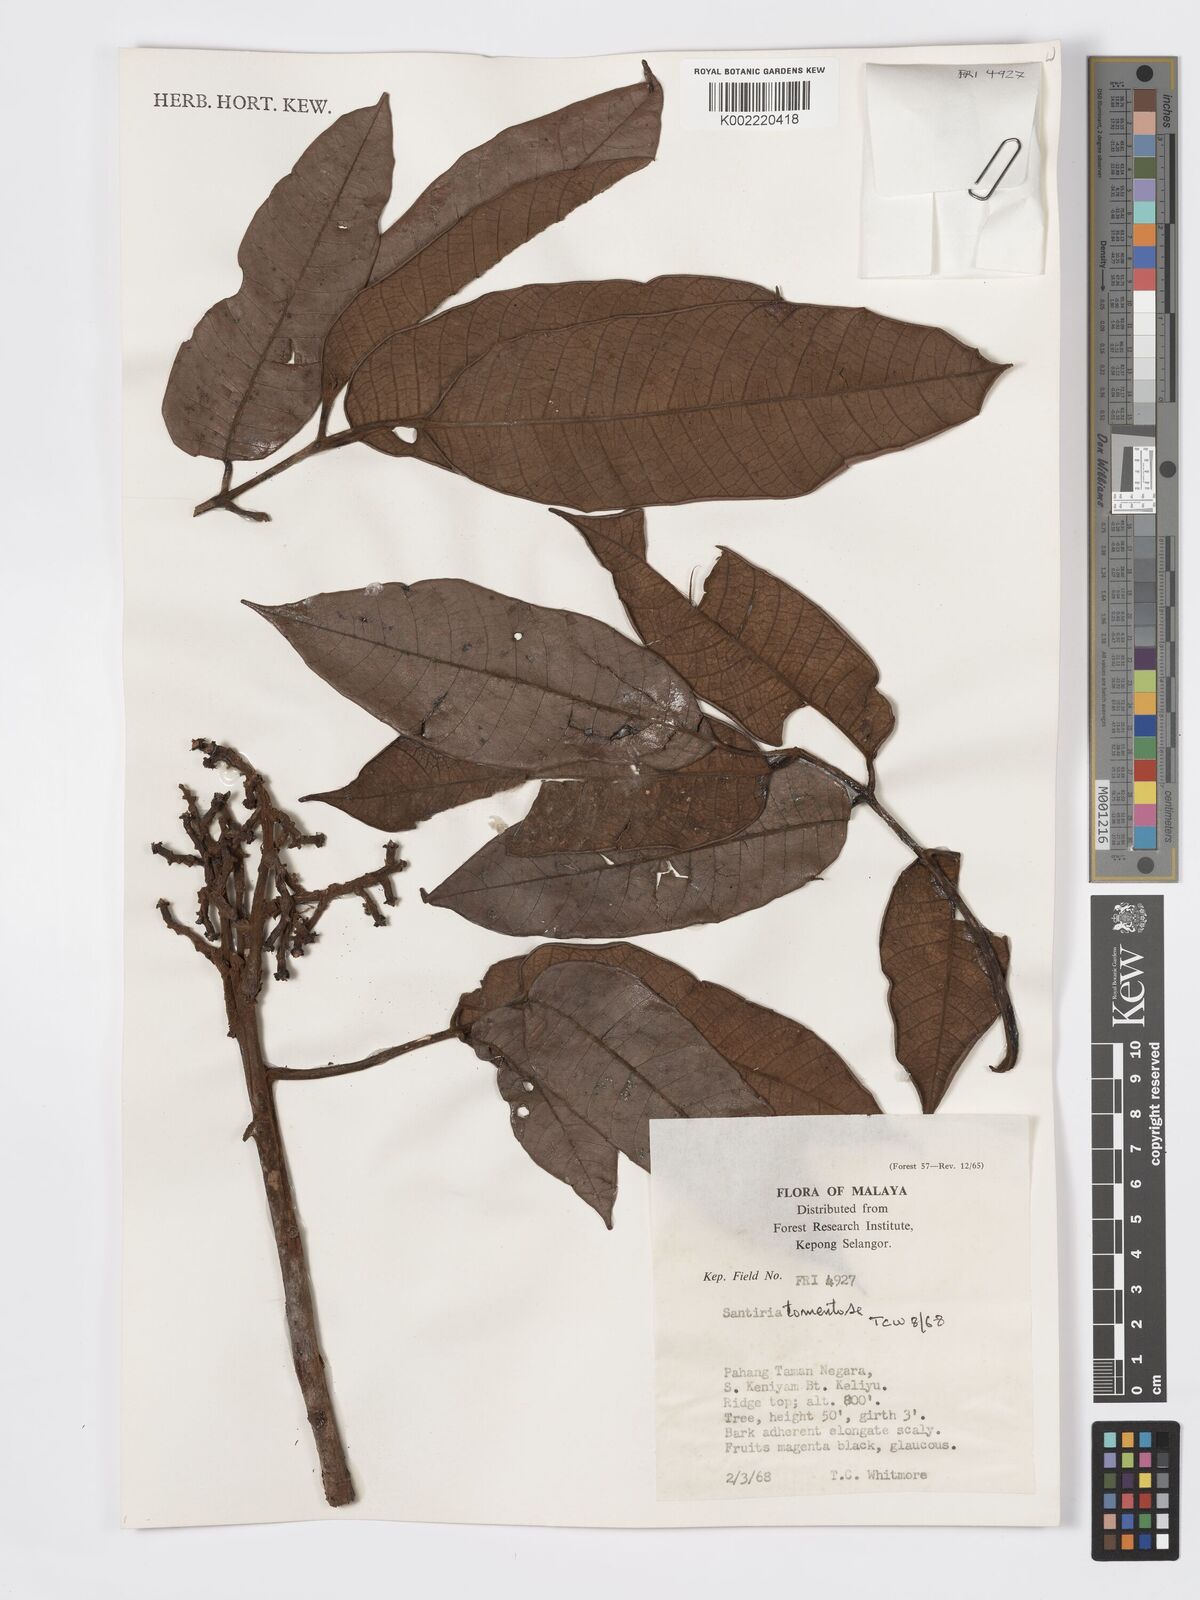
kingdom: Plantae
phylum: Tracheophyta
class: Magnoliopsida
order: Sapindales
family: Burseraceae
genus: Santiria
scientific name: Santiria tomentosa
